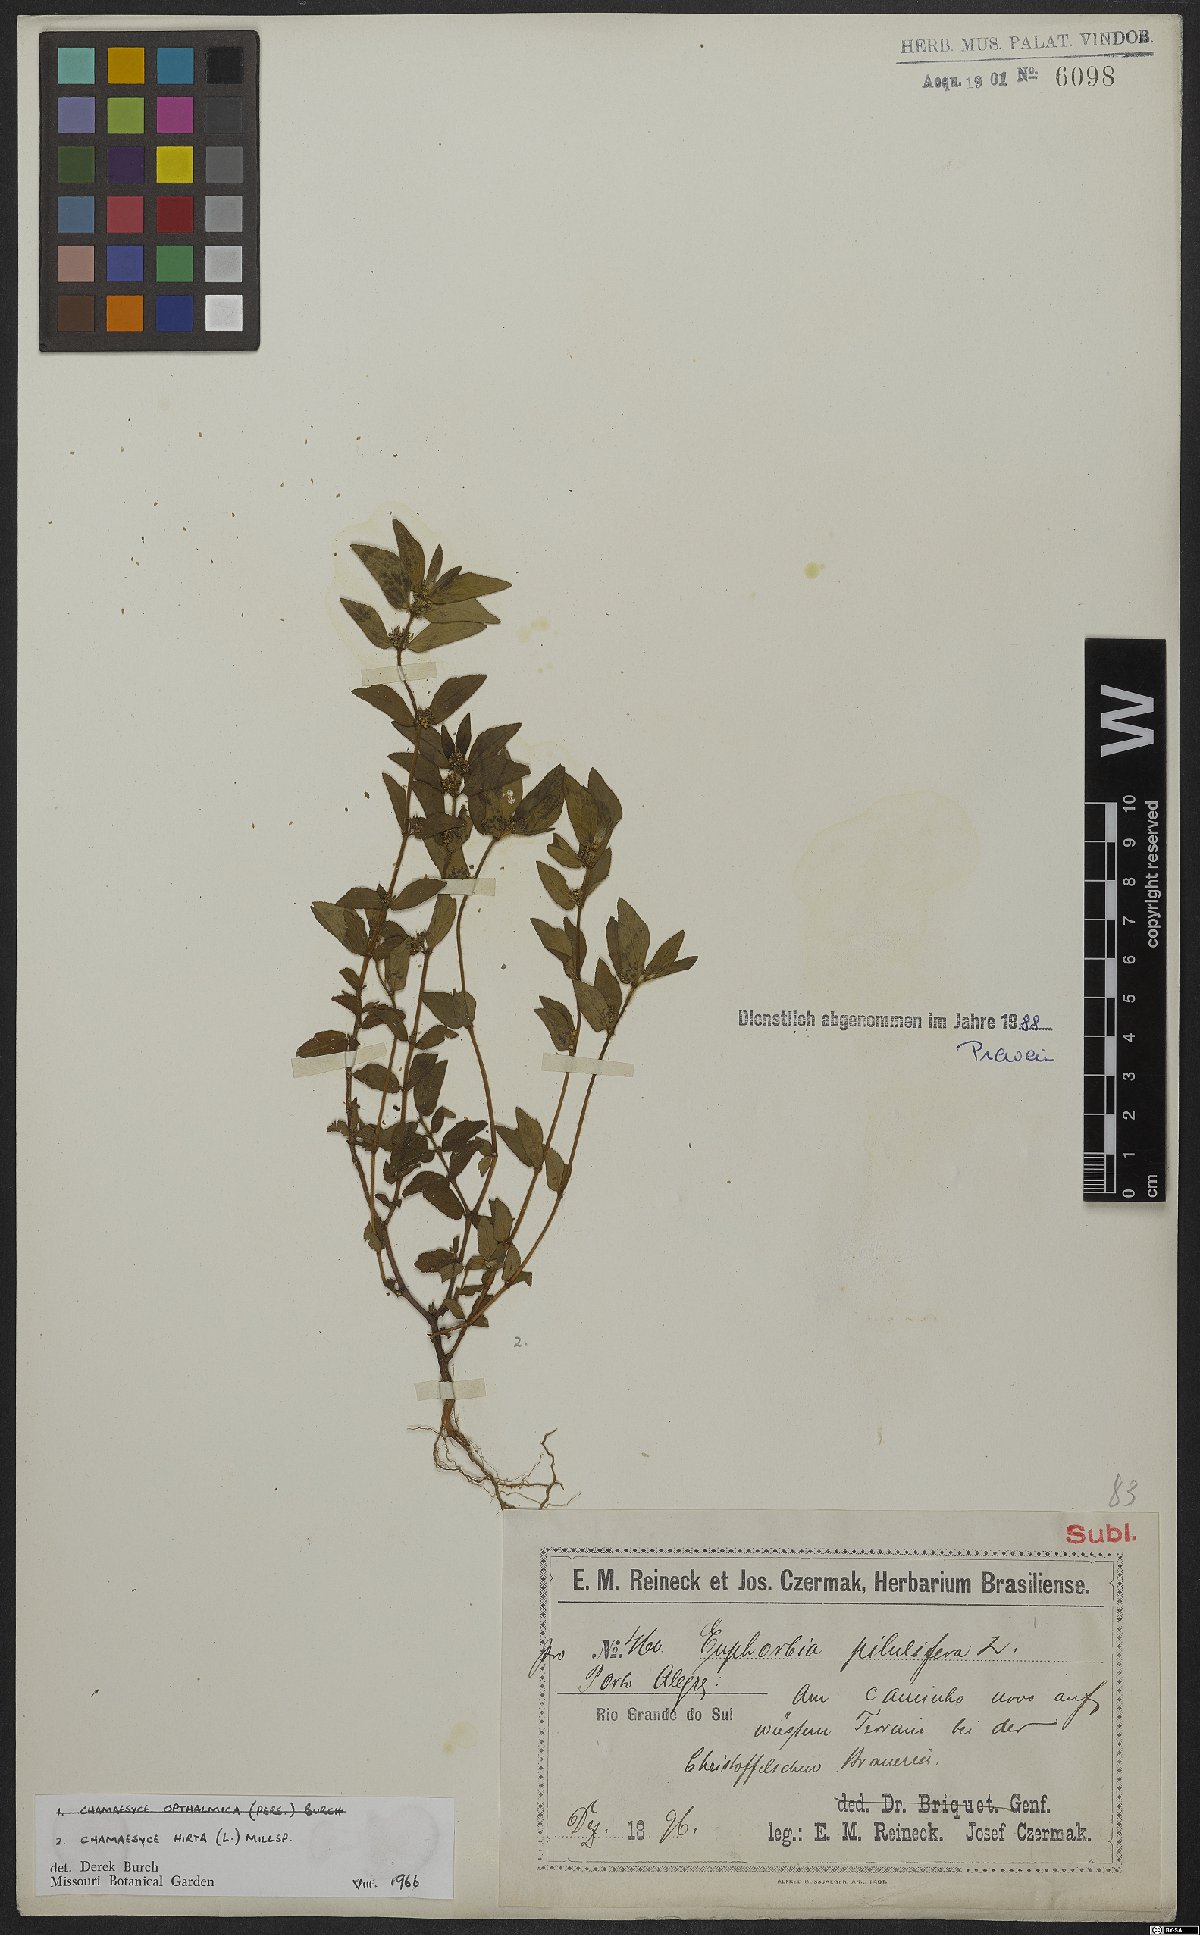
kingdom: Plantae
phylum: Tracheophyta
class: Magnoliopsida
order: Malpighiales
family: Euphorbiaceae
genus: Euphorbia
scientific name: Euphorbia hirta
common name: Pillpod sandmat
